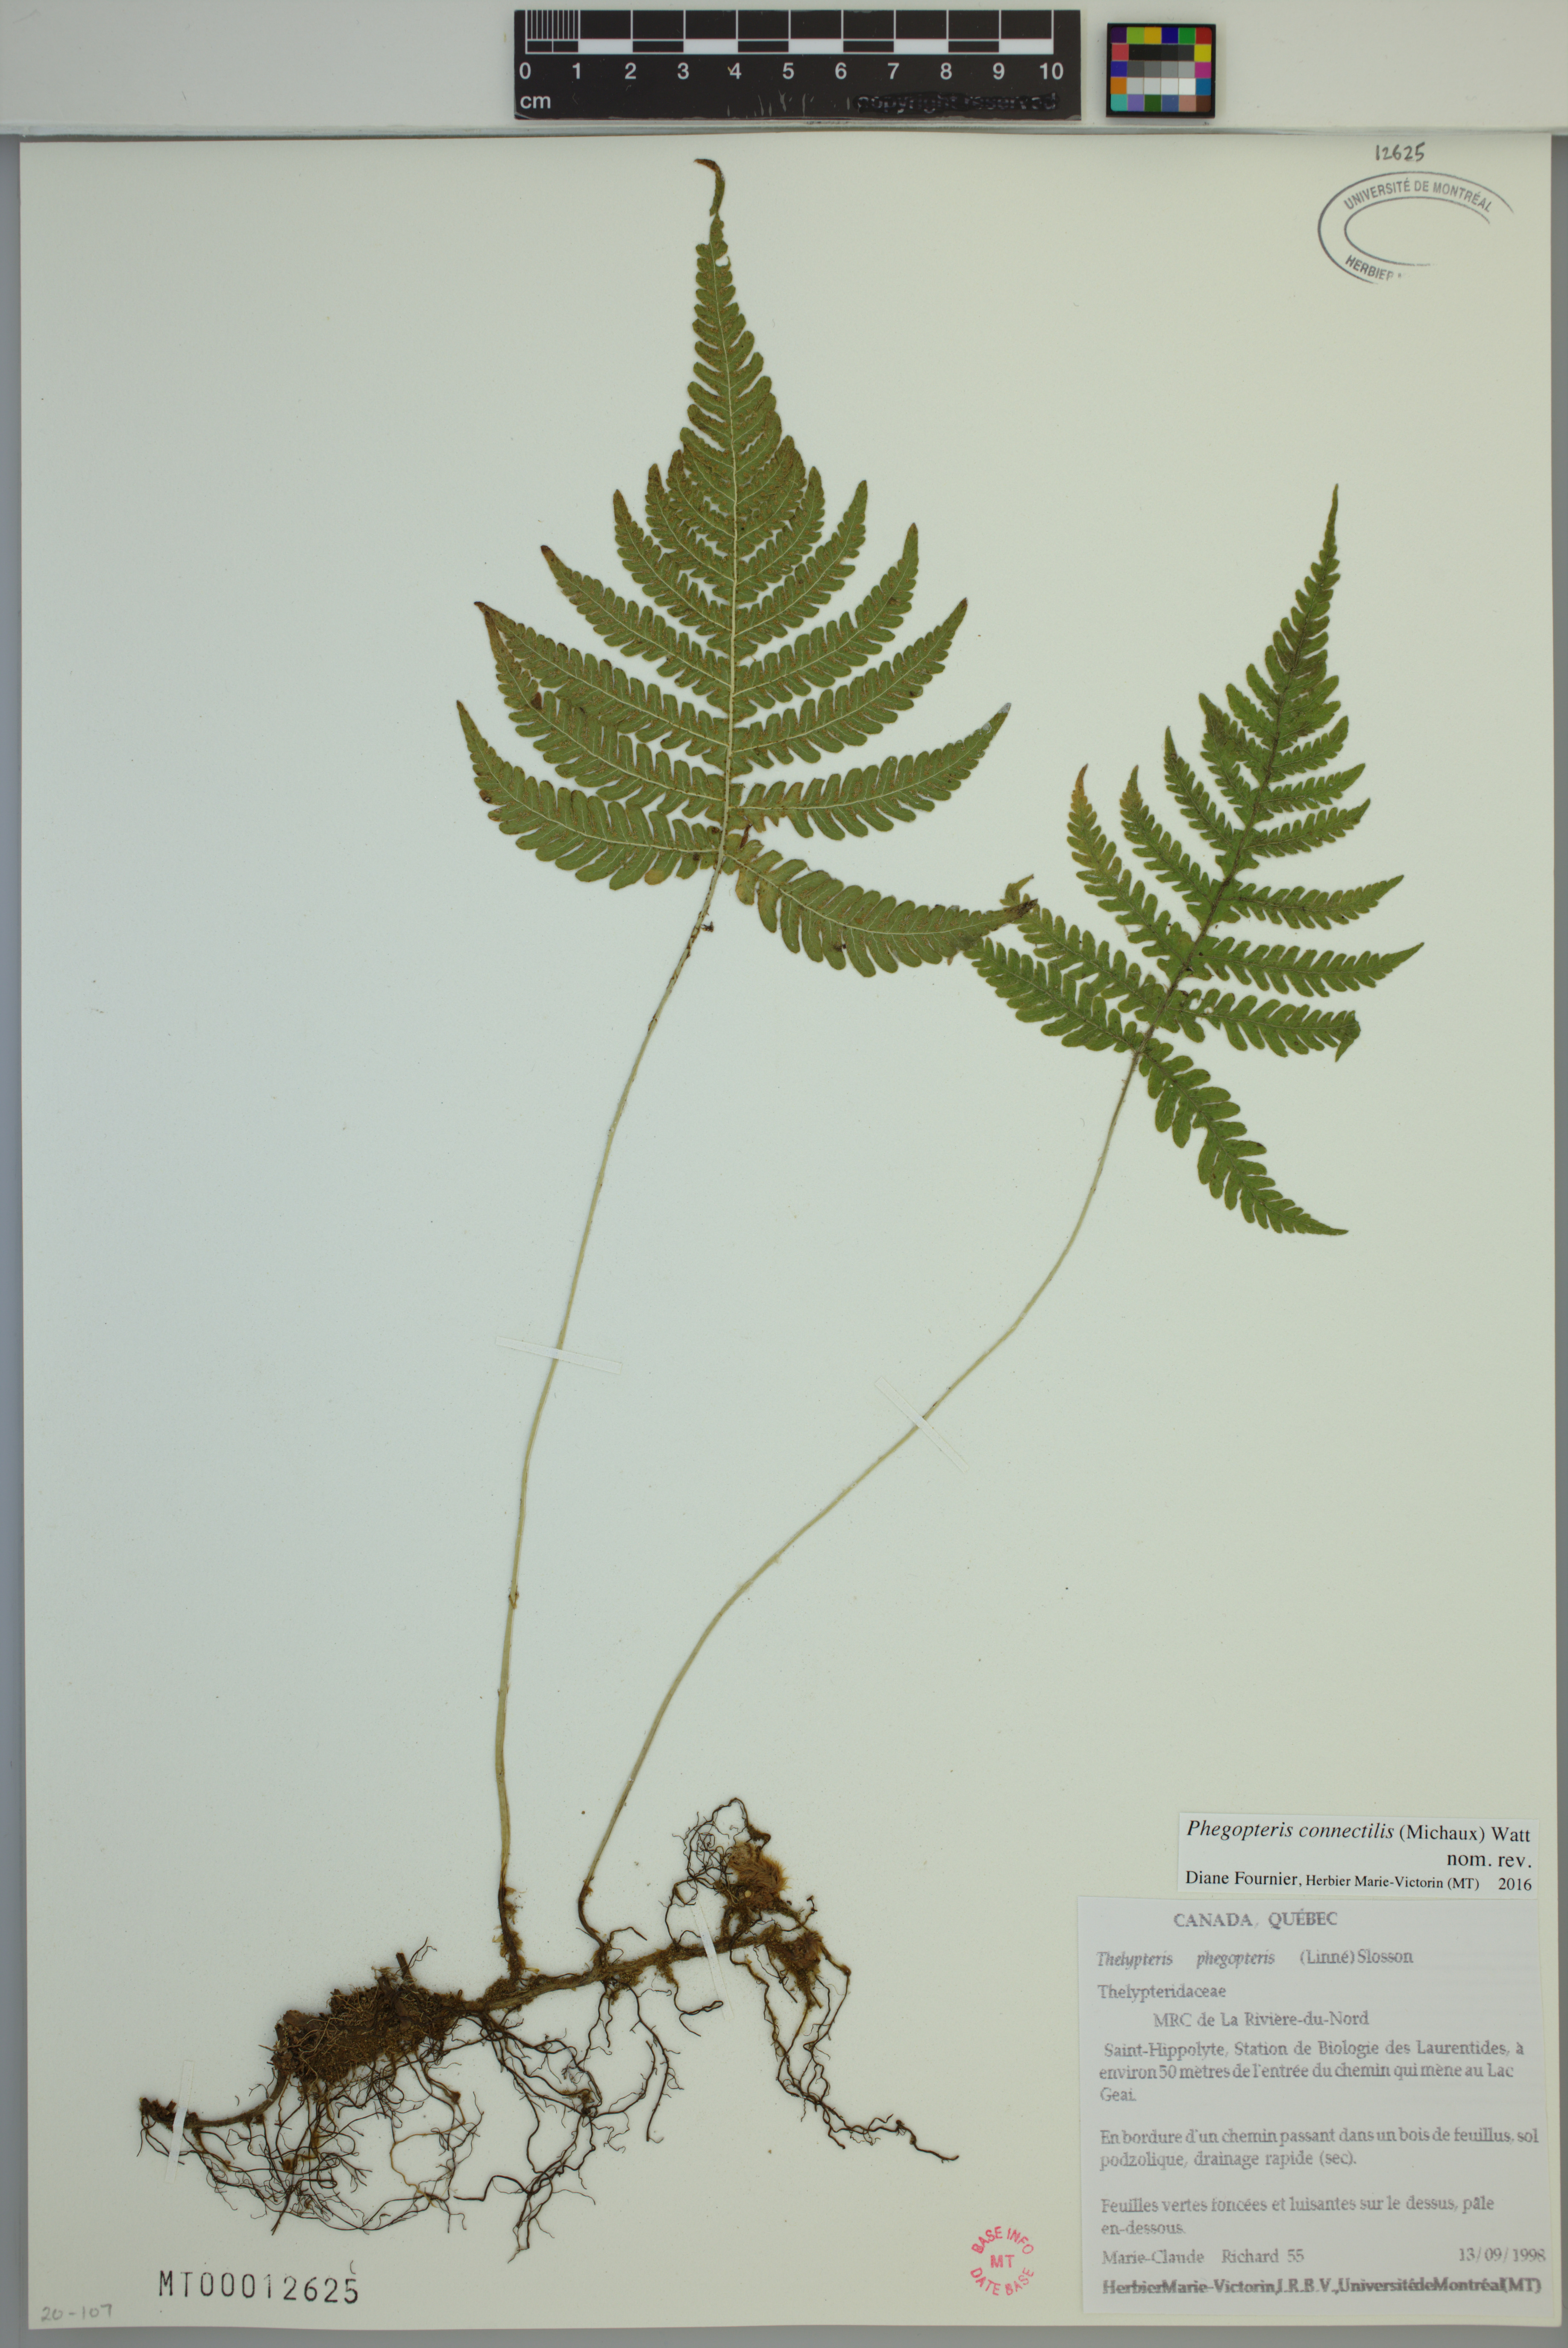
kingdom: Plantae
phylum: Tracheophyta
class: Polypodiopsida
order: Polypodiales
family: Thelypteridaceae
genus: Phegopteris
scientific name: Phegopteris connectilis
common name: Beech fern
